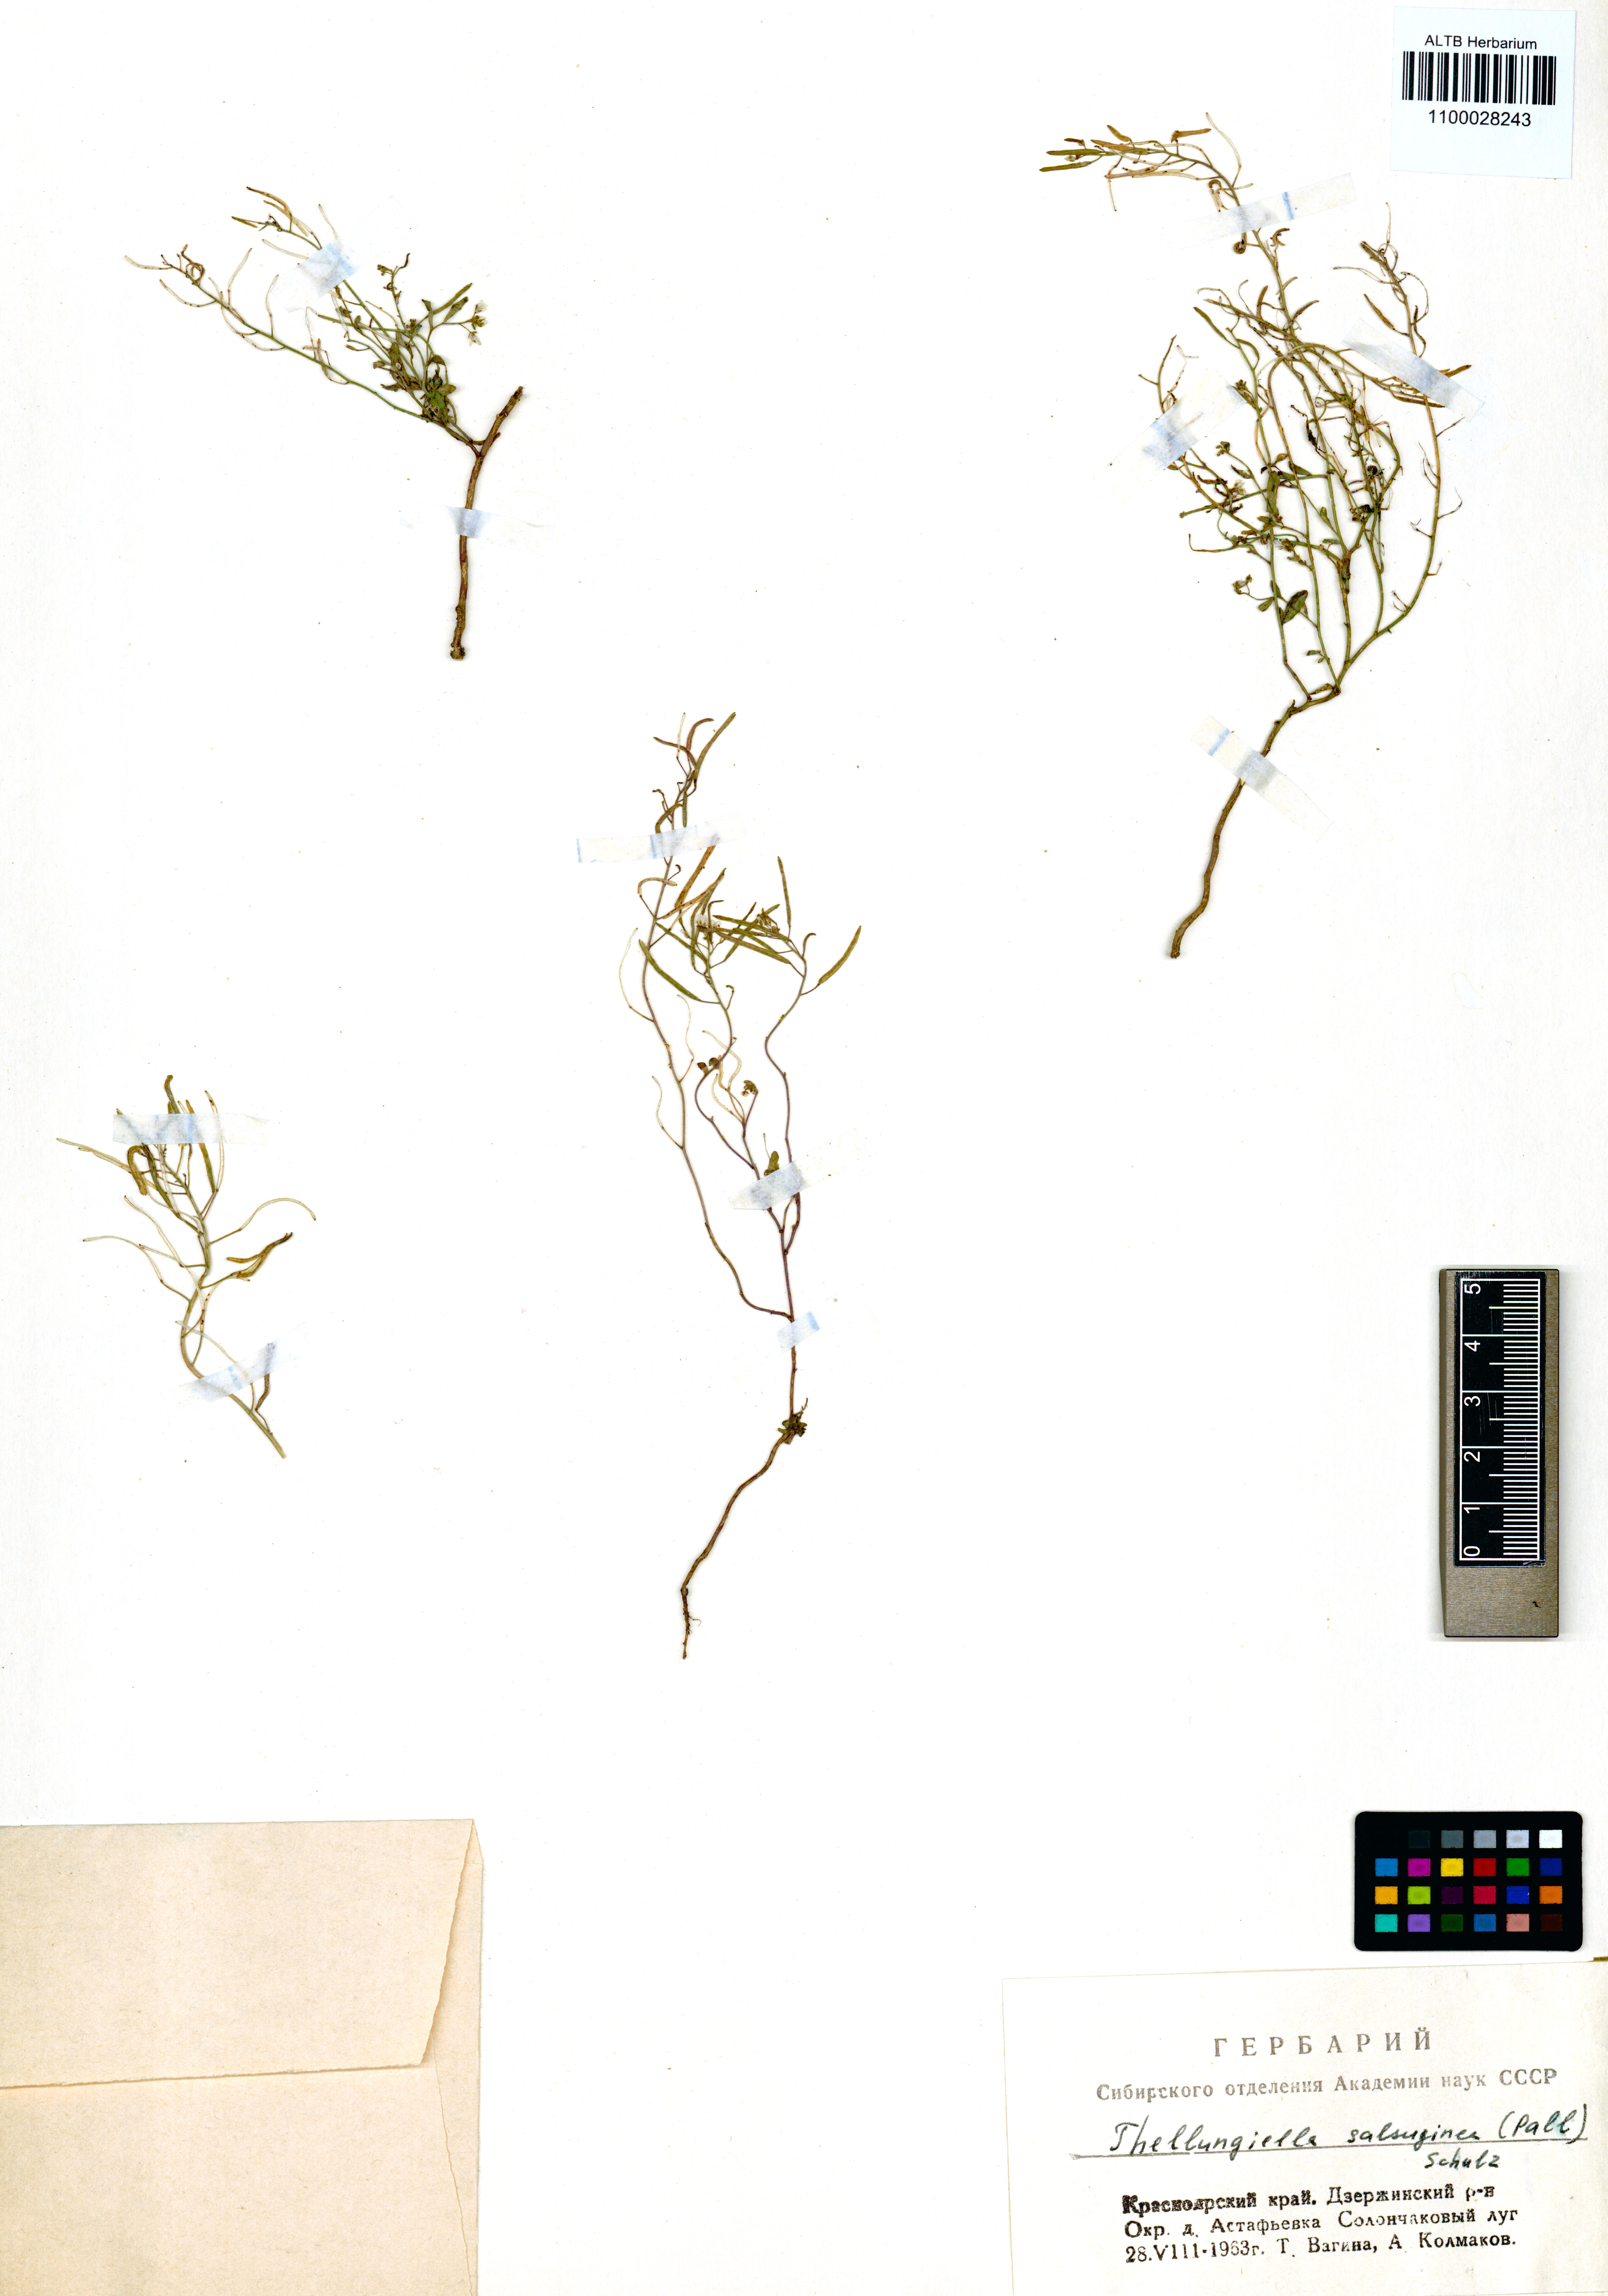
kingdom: Plantae
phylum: Tracheophyta
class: Magnoliopsida
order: Brassicales
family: Brassicaceae
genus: Eutrema
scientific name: Eutrema salsugineum
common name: Mouse-ear cress
